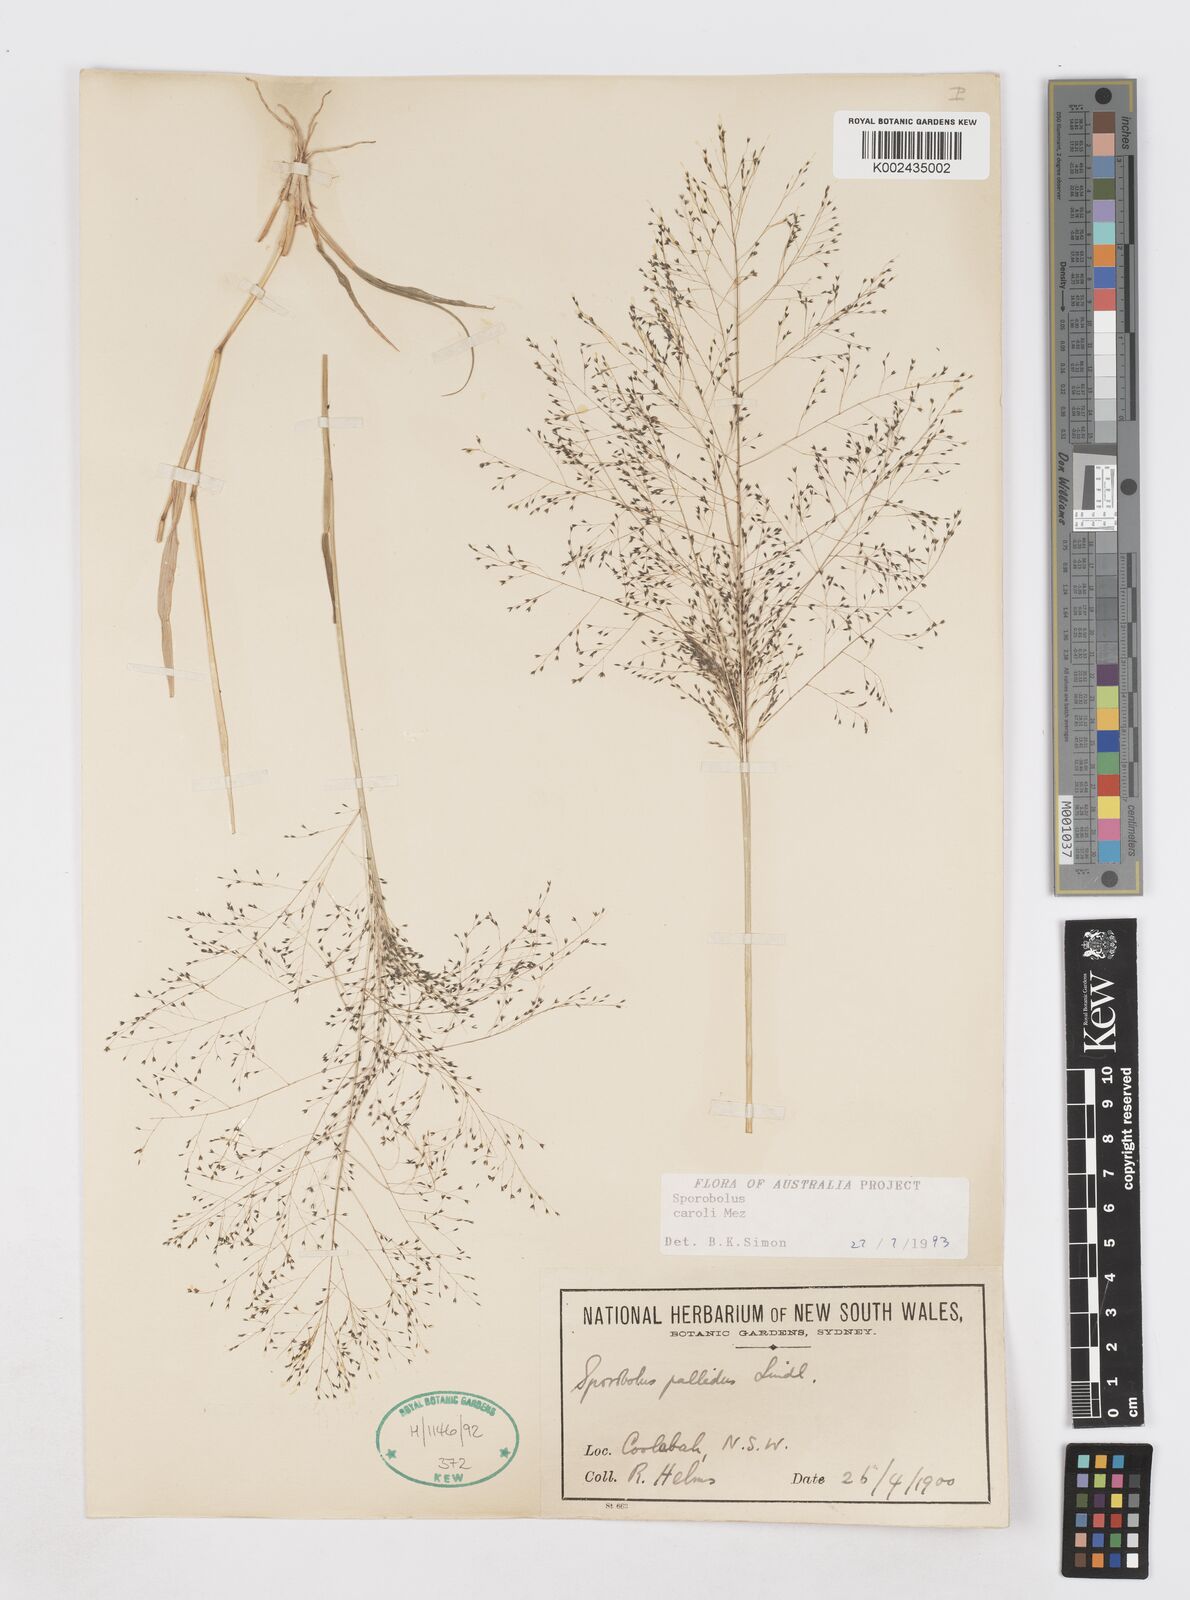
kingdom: Plantae
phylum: Tracheophyta
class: Liliopsida
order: Poales
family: Poaceae
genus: Sporobolus
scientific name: Sporobolus caroli
